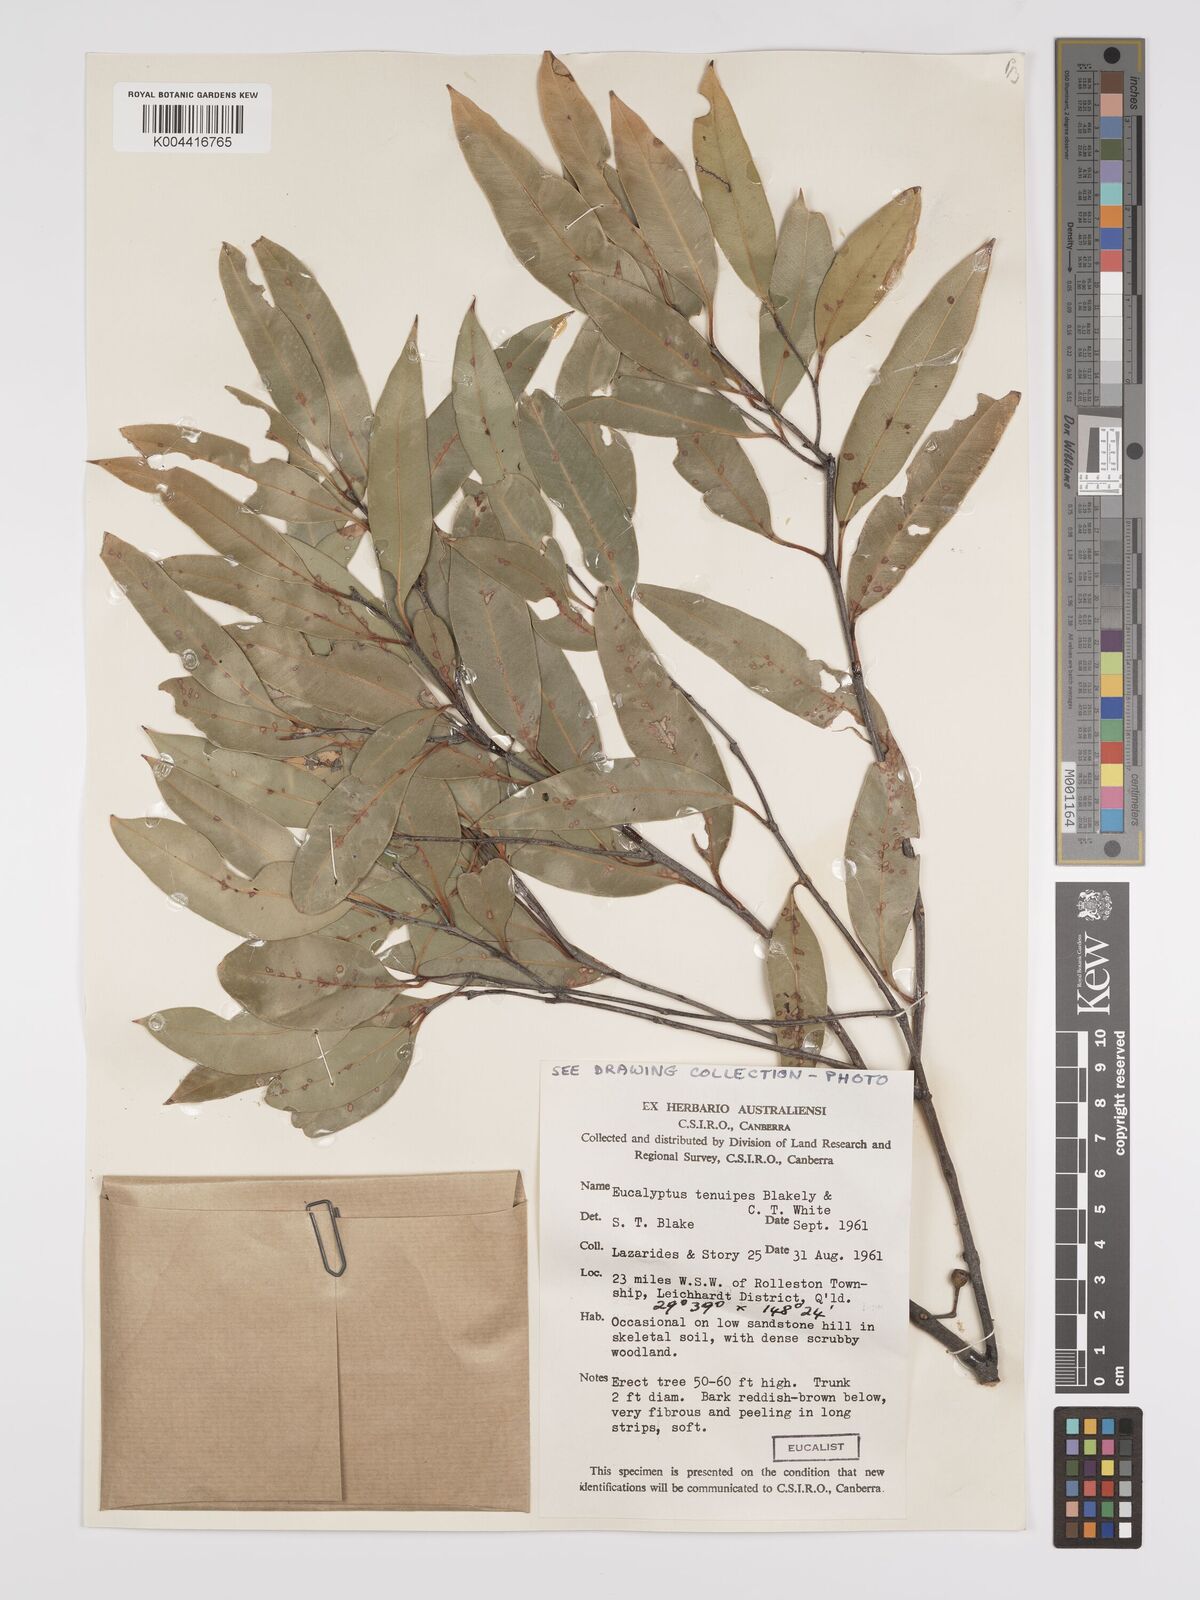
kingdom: Plantae
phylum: Tracheophyta
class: Magnoliopsida
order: Myrtales
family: Myrtaceae
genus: Eucalyptus
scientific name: Eucalyptus tenuipes
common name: Narrow-leaved white mahogany
